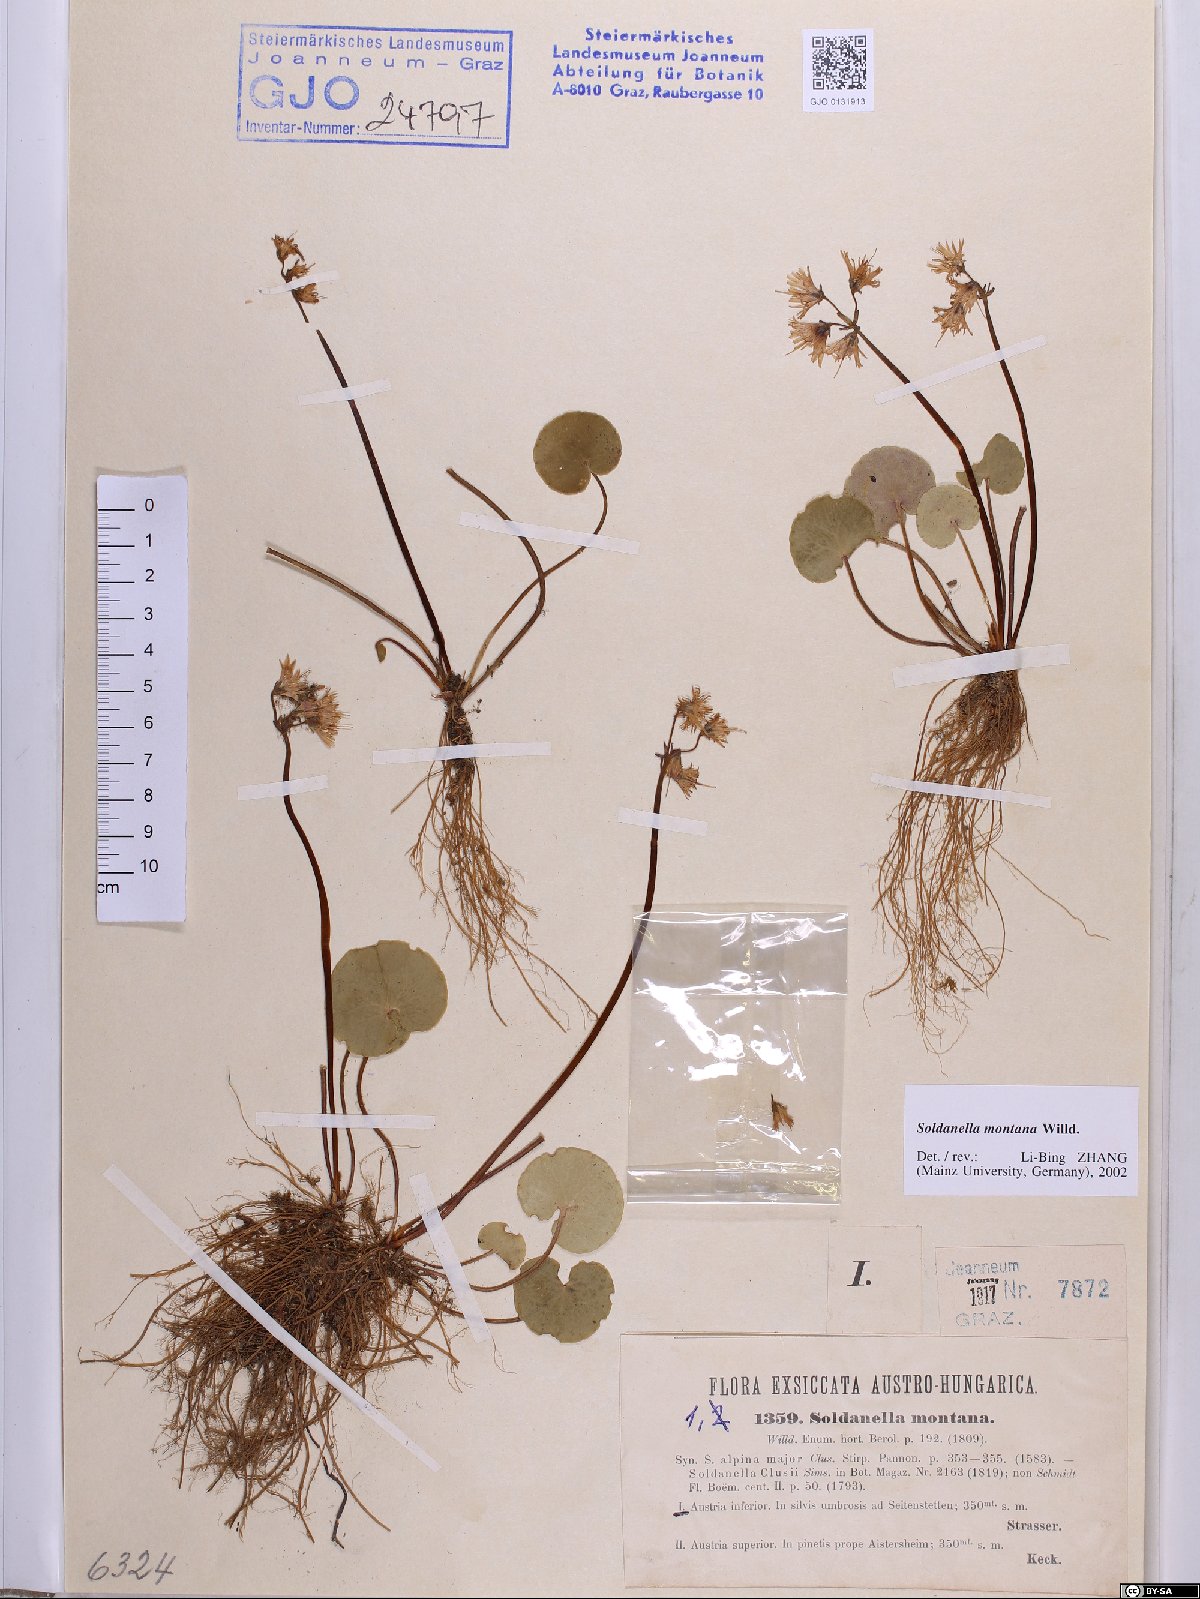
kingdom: Plantae
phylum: Tracheophyta
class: Magnoliopsida
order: Ericales
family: Primulaceae
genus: Soldanella
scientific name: Soldanella montana
